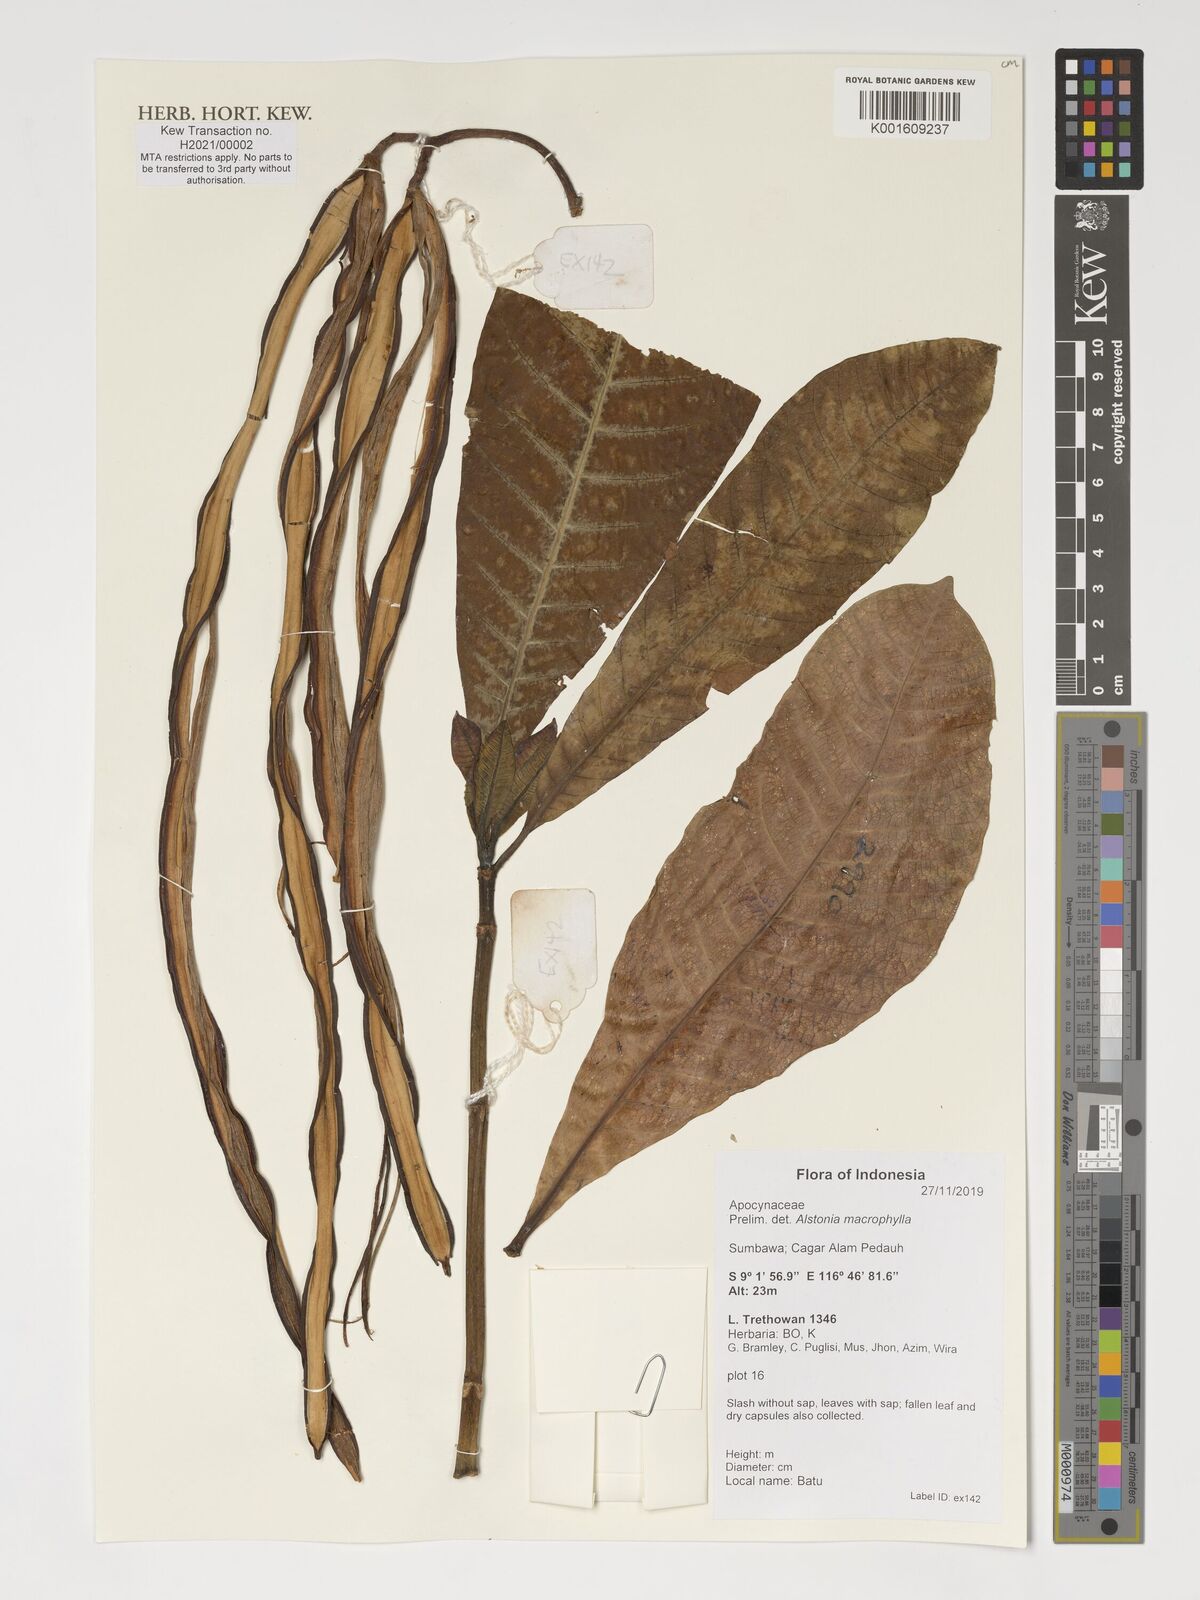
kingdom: Plantae
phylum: Tracheophyta
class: Magnoliopsida
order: Gentianales
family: Apocynaceae
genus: Alstonia
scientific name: Alstonia macrophylla
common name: Deviltree
